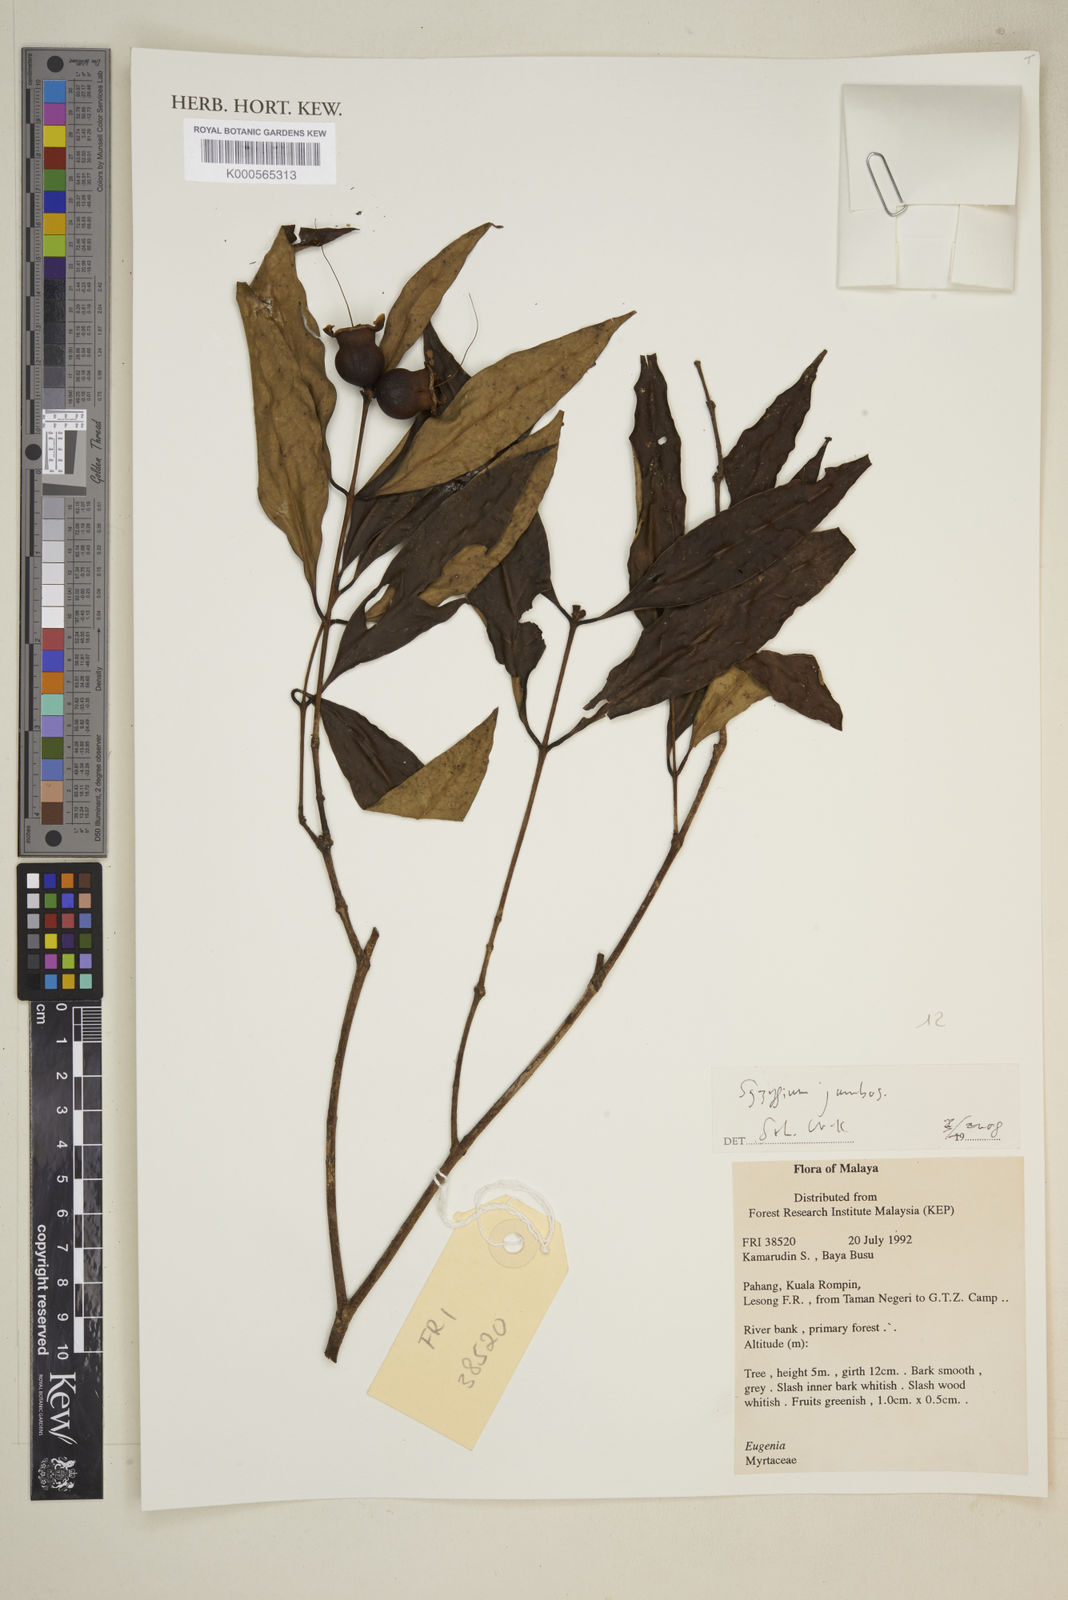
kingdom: Plantae
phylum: Tracheophyta
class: Magnoliopsida
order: Myrtales
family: Myrtaceae
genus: Syzygium
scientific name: Syzygium jambos
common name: Malabar plum
